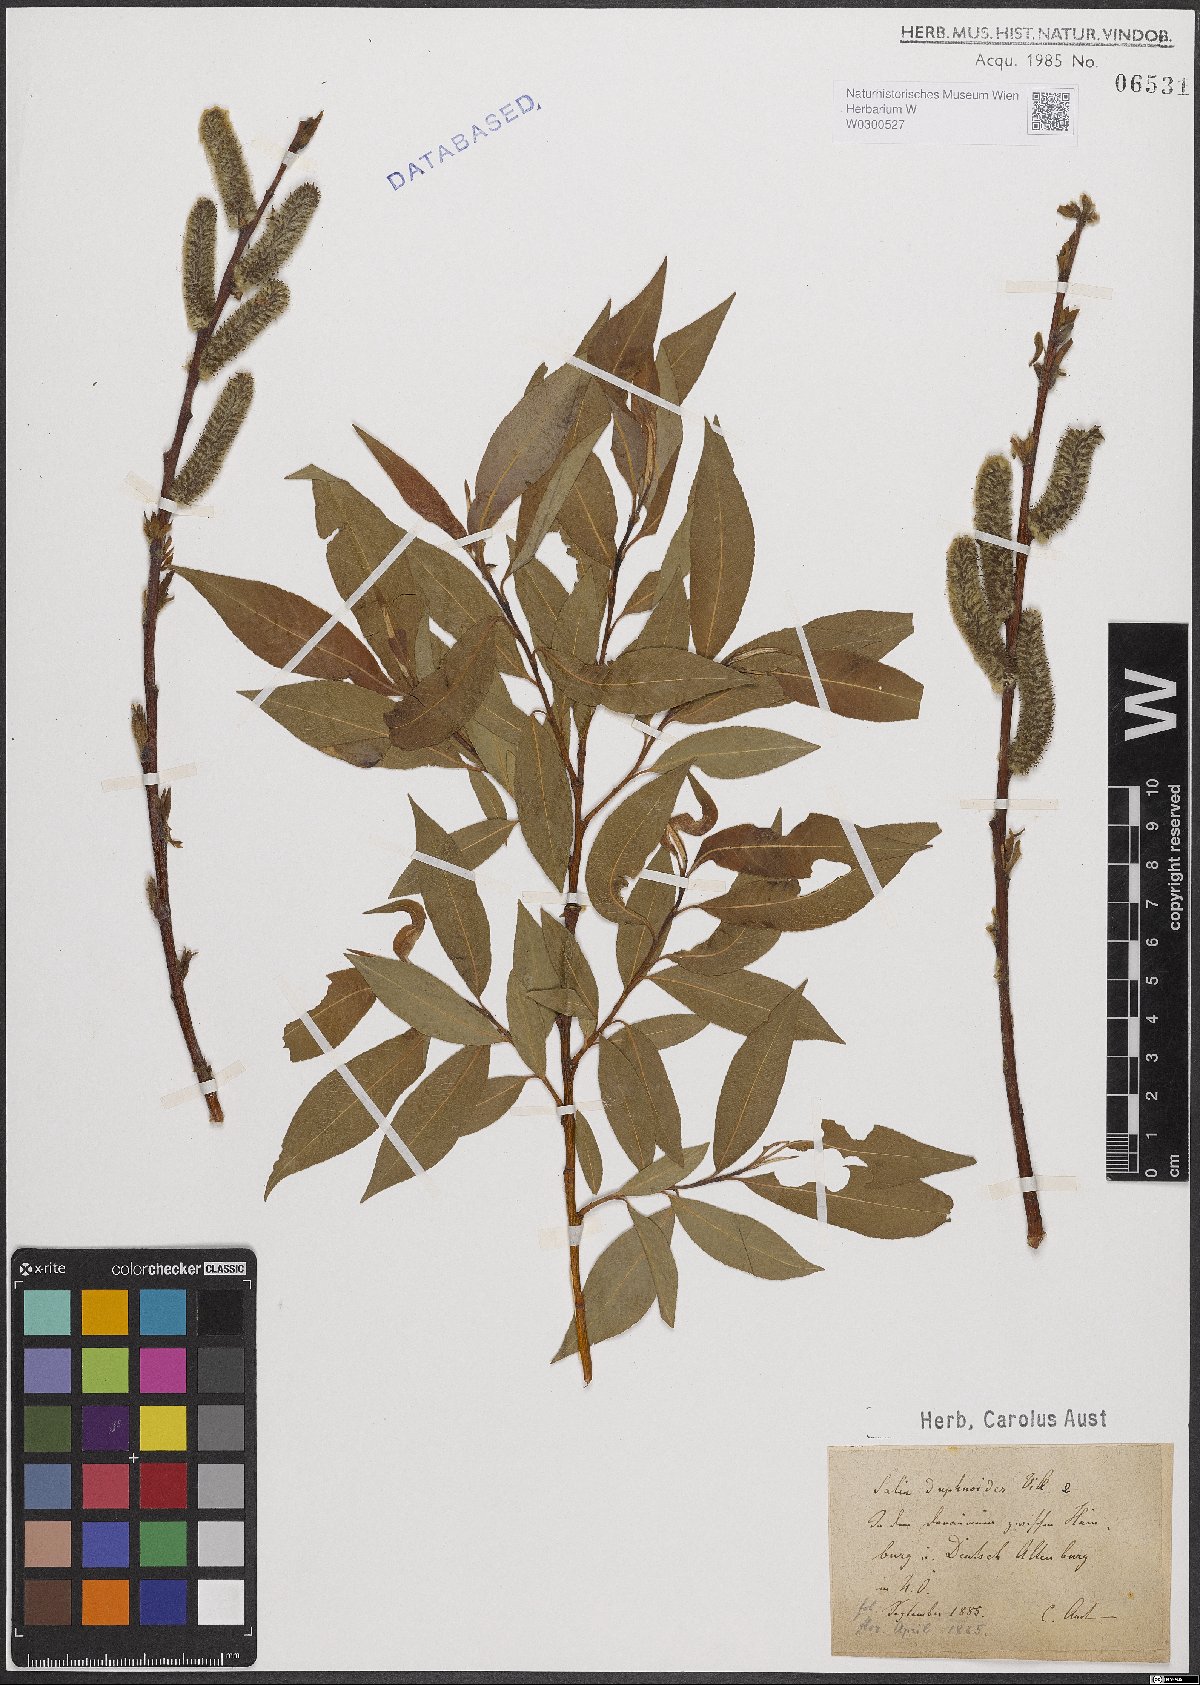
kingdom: Plantae
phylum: Tracheophyta
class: Magnoliopsida
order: Malpighiales
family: Salicaceae
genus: Salix
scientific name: Salix daphnoides
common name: European violet-willow
